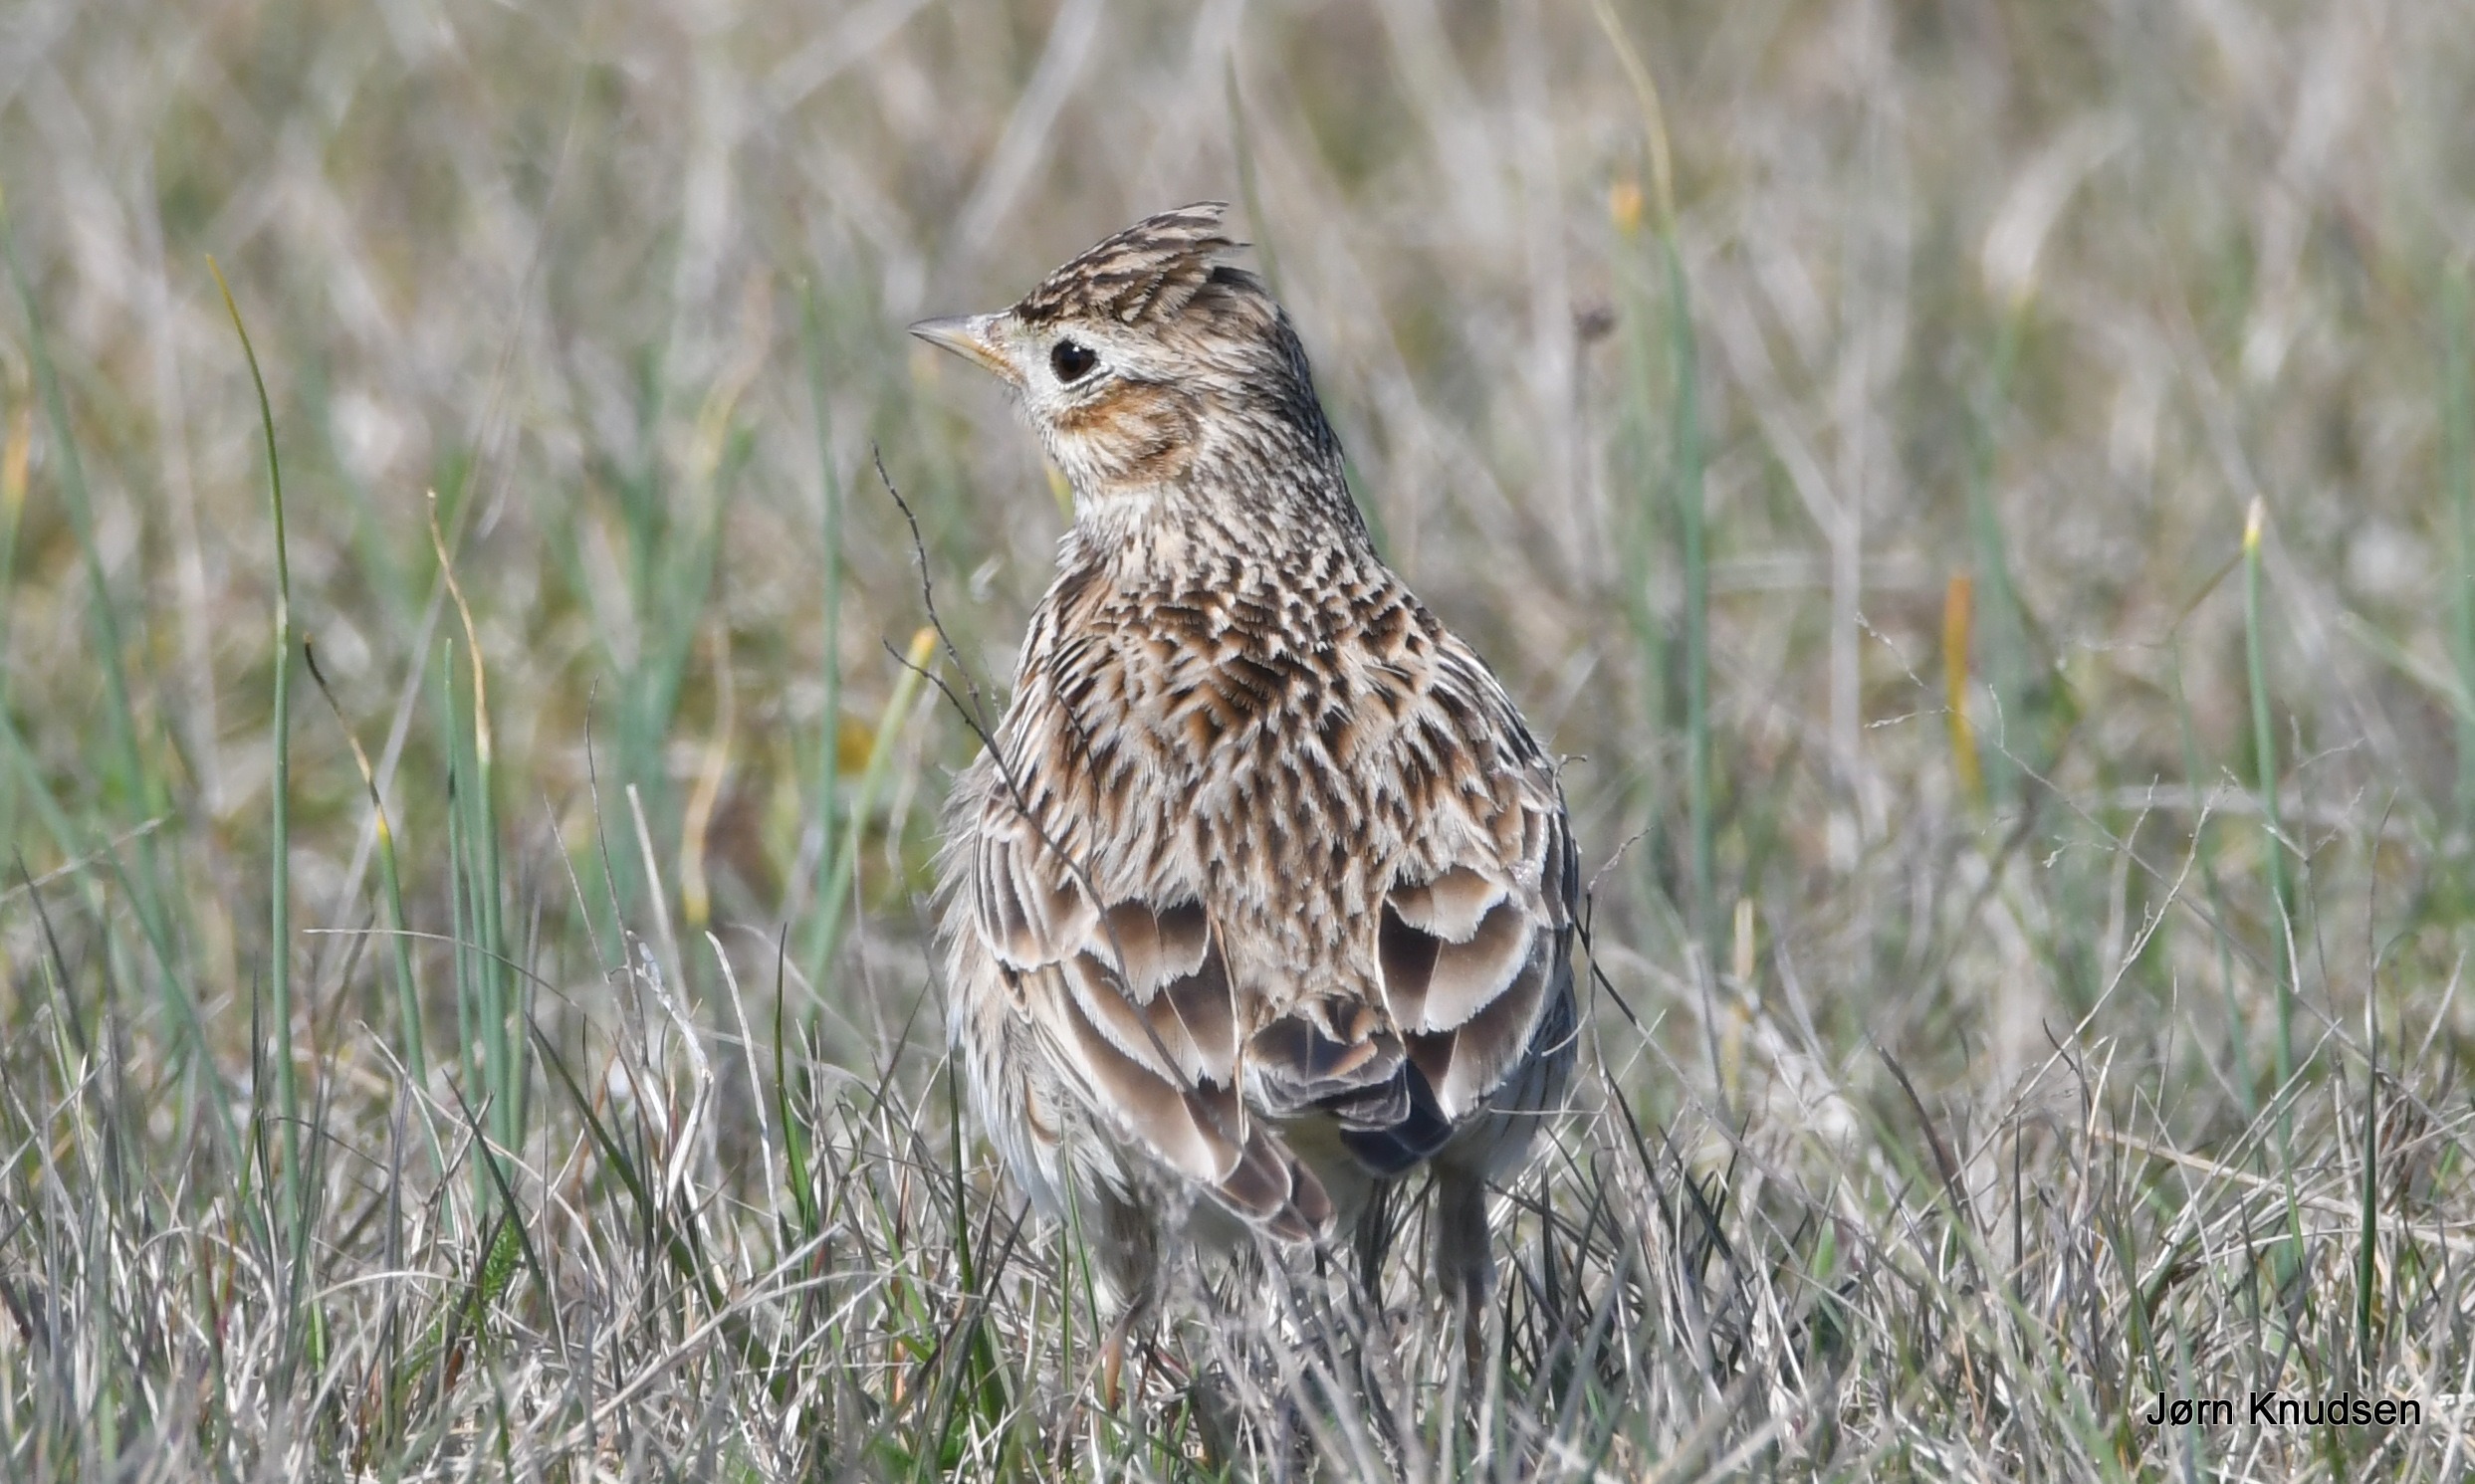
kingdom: Animalia
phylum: Chordata
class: Aves
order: Passeriformes
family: Alaudidae
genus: Alauda
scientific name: Alauda arvensis
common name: Sanglærke
